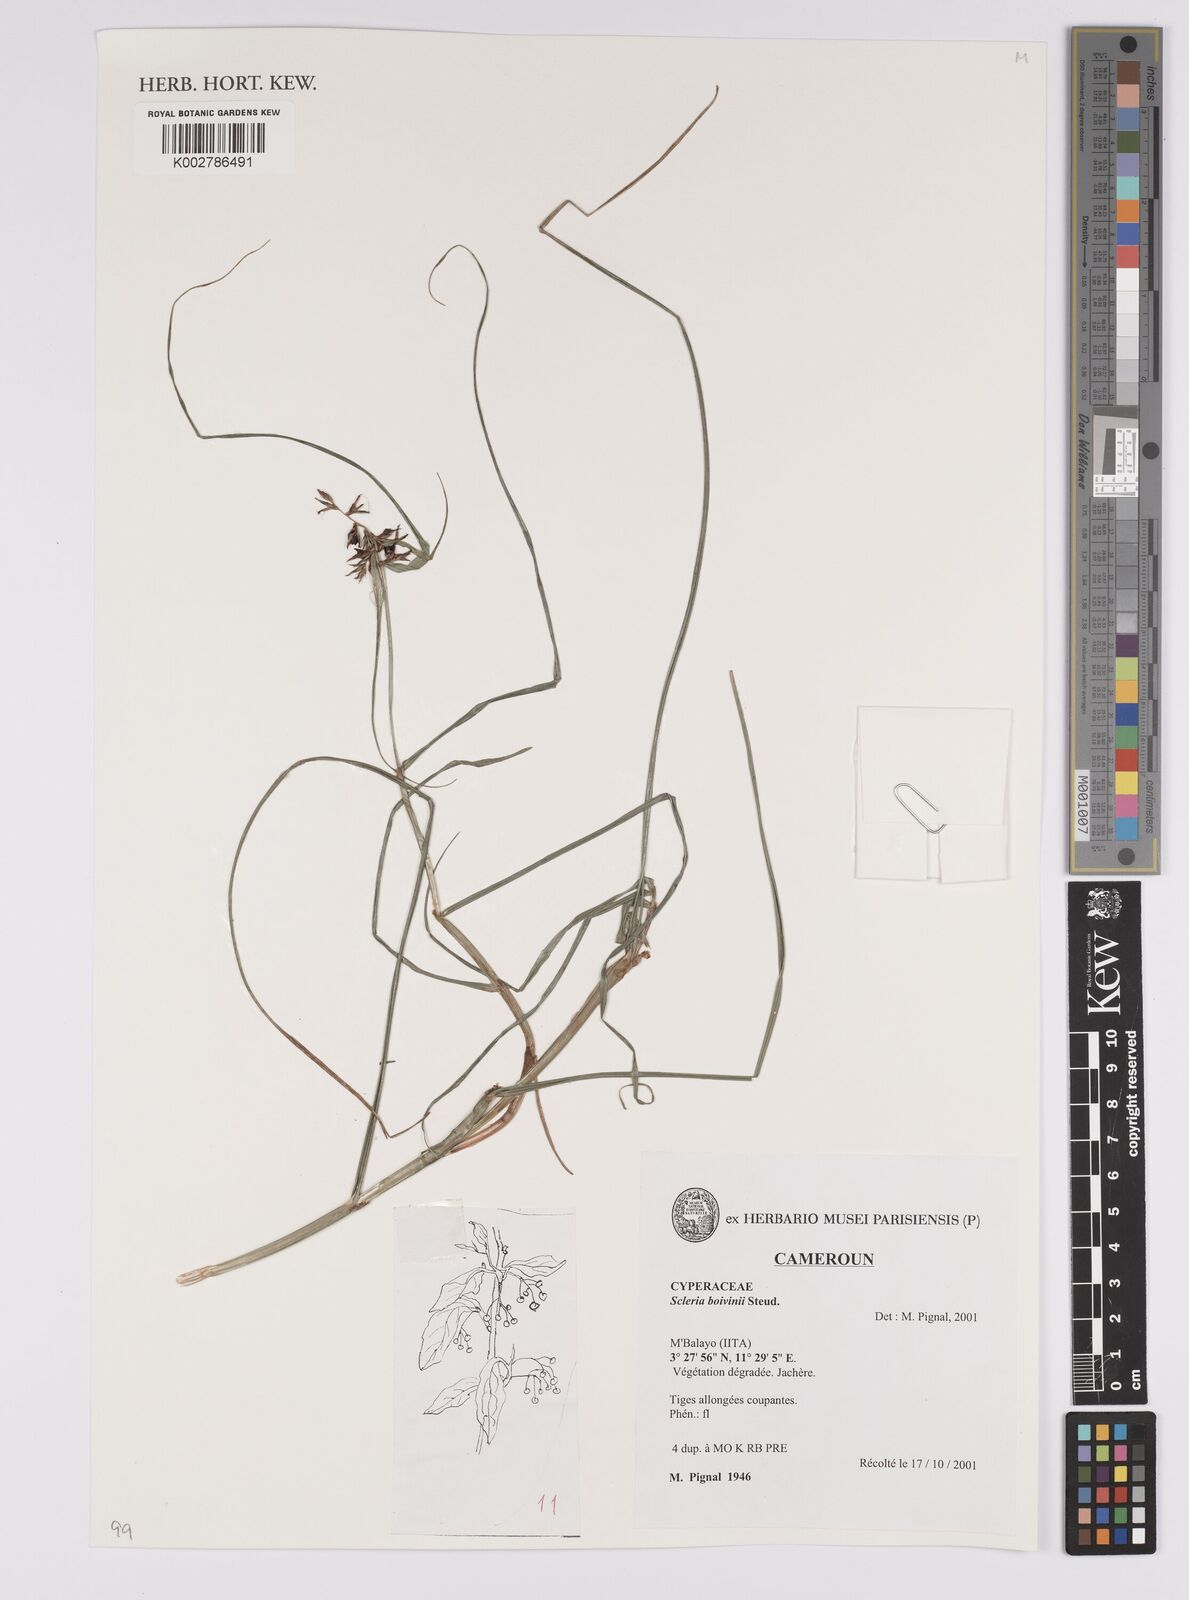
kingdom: Plantae
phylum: Tracheophyta
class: Liliopsida
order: Poales
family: Cyperaceae
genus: Scleria
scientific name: Scleria boivinii
